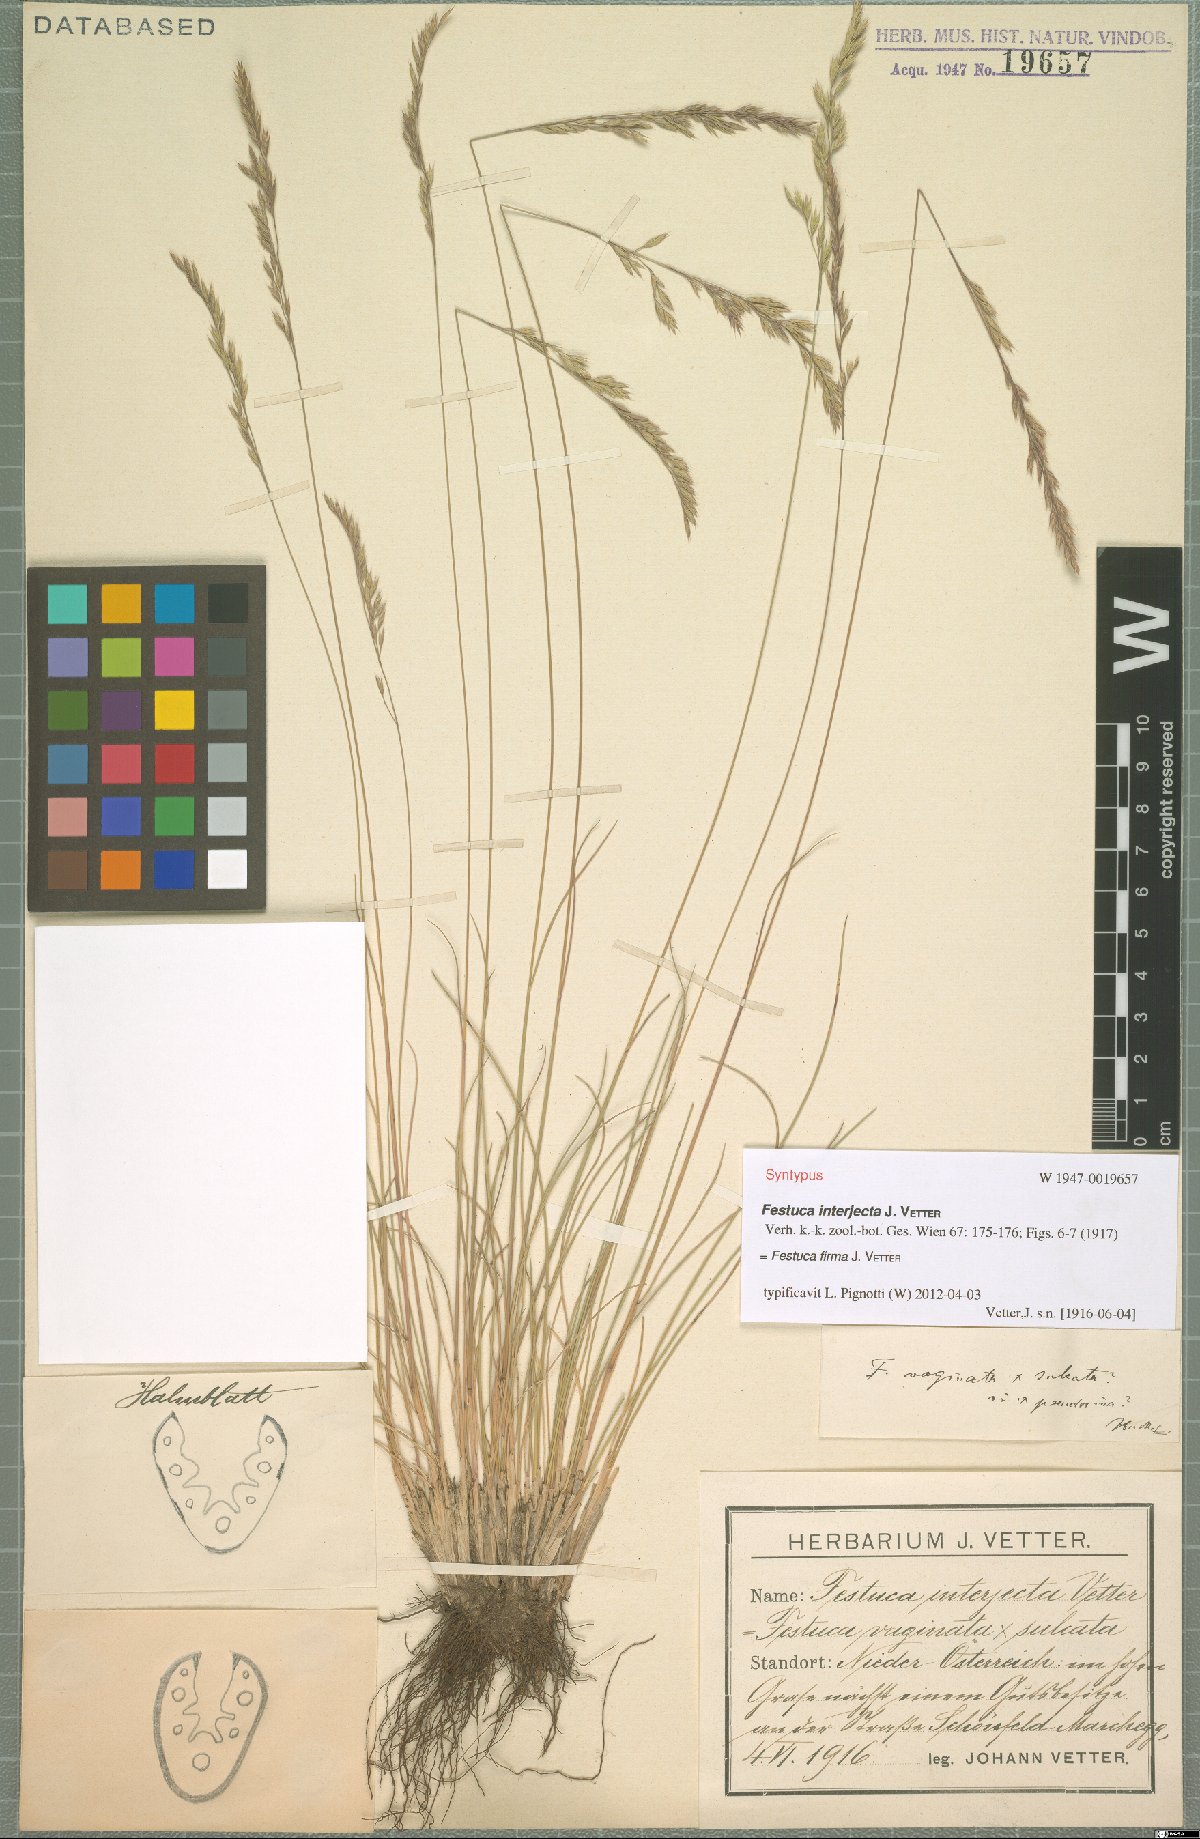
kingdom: Plantae
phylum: Tracheophyta
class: Liliopsida
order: Poales
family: Poaceae
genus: Festuca
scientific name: Festuca pulchra
